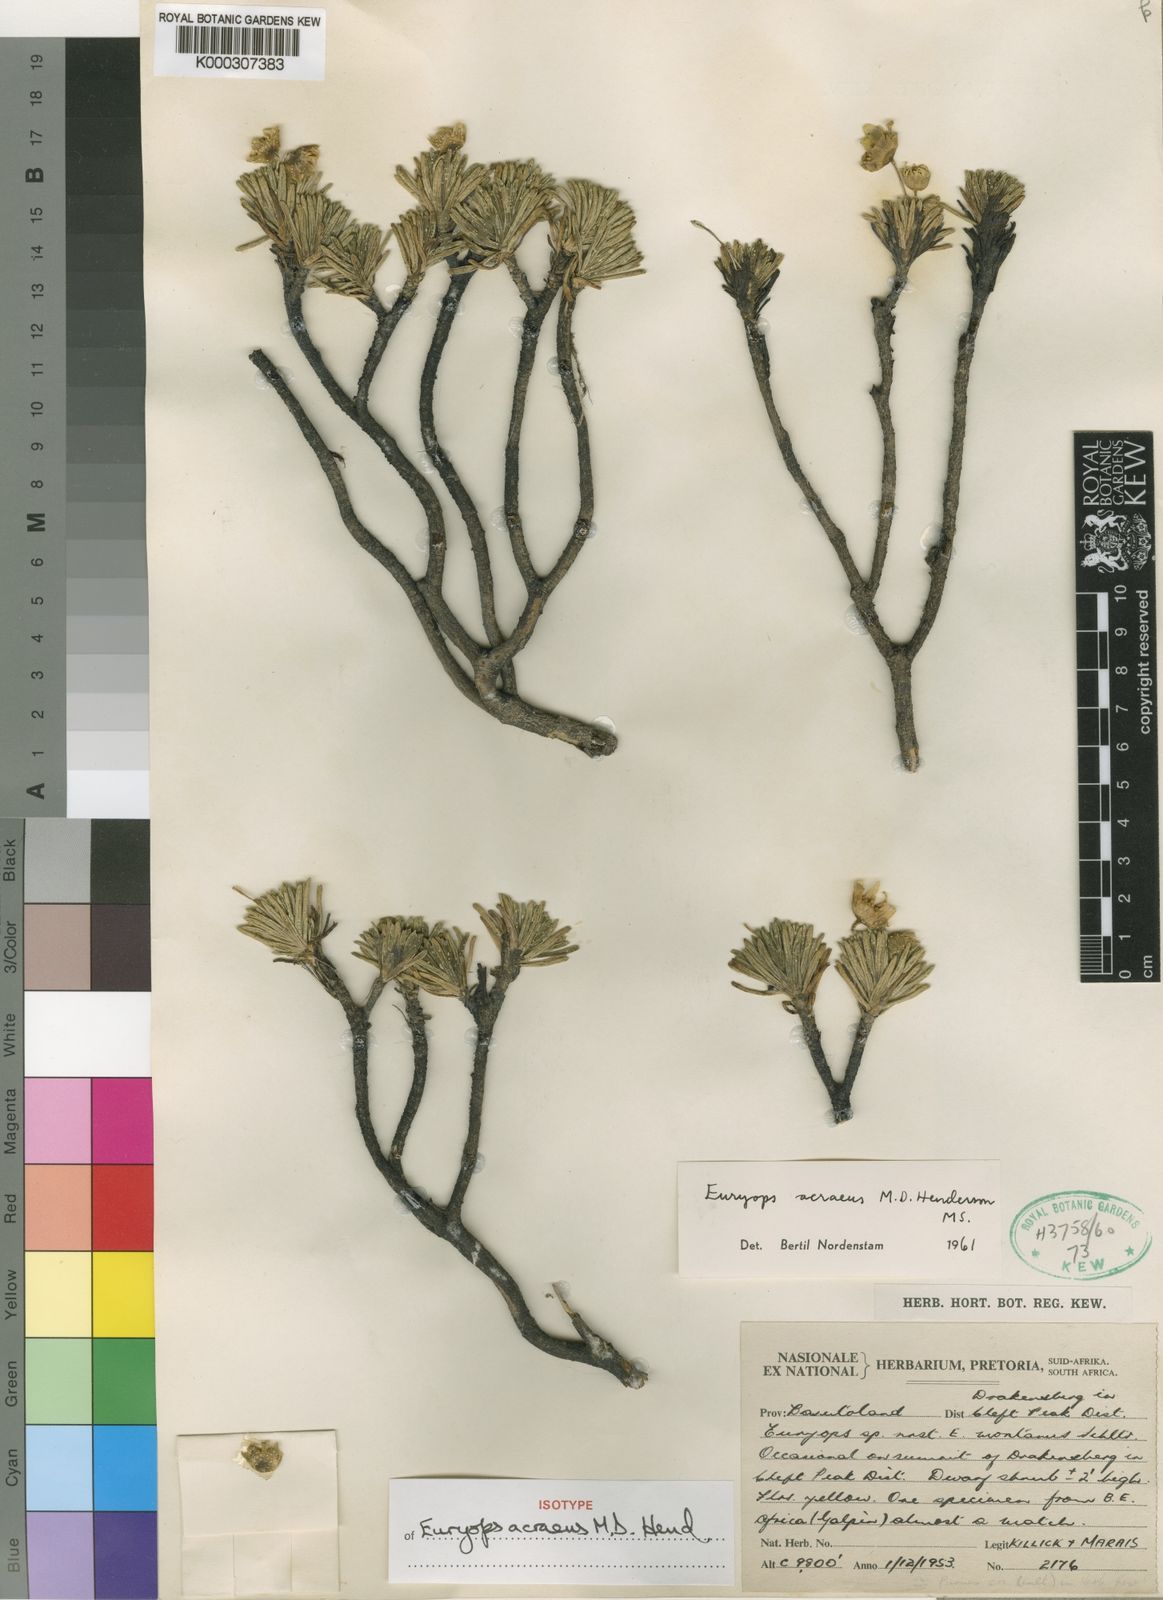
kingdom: Plantae
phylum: Tracheophyta
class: Magnoliopsida
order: Asterales
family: Asteraceae
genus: Euryops
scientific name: Euryops acraeus
